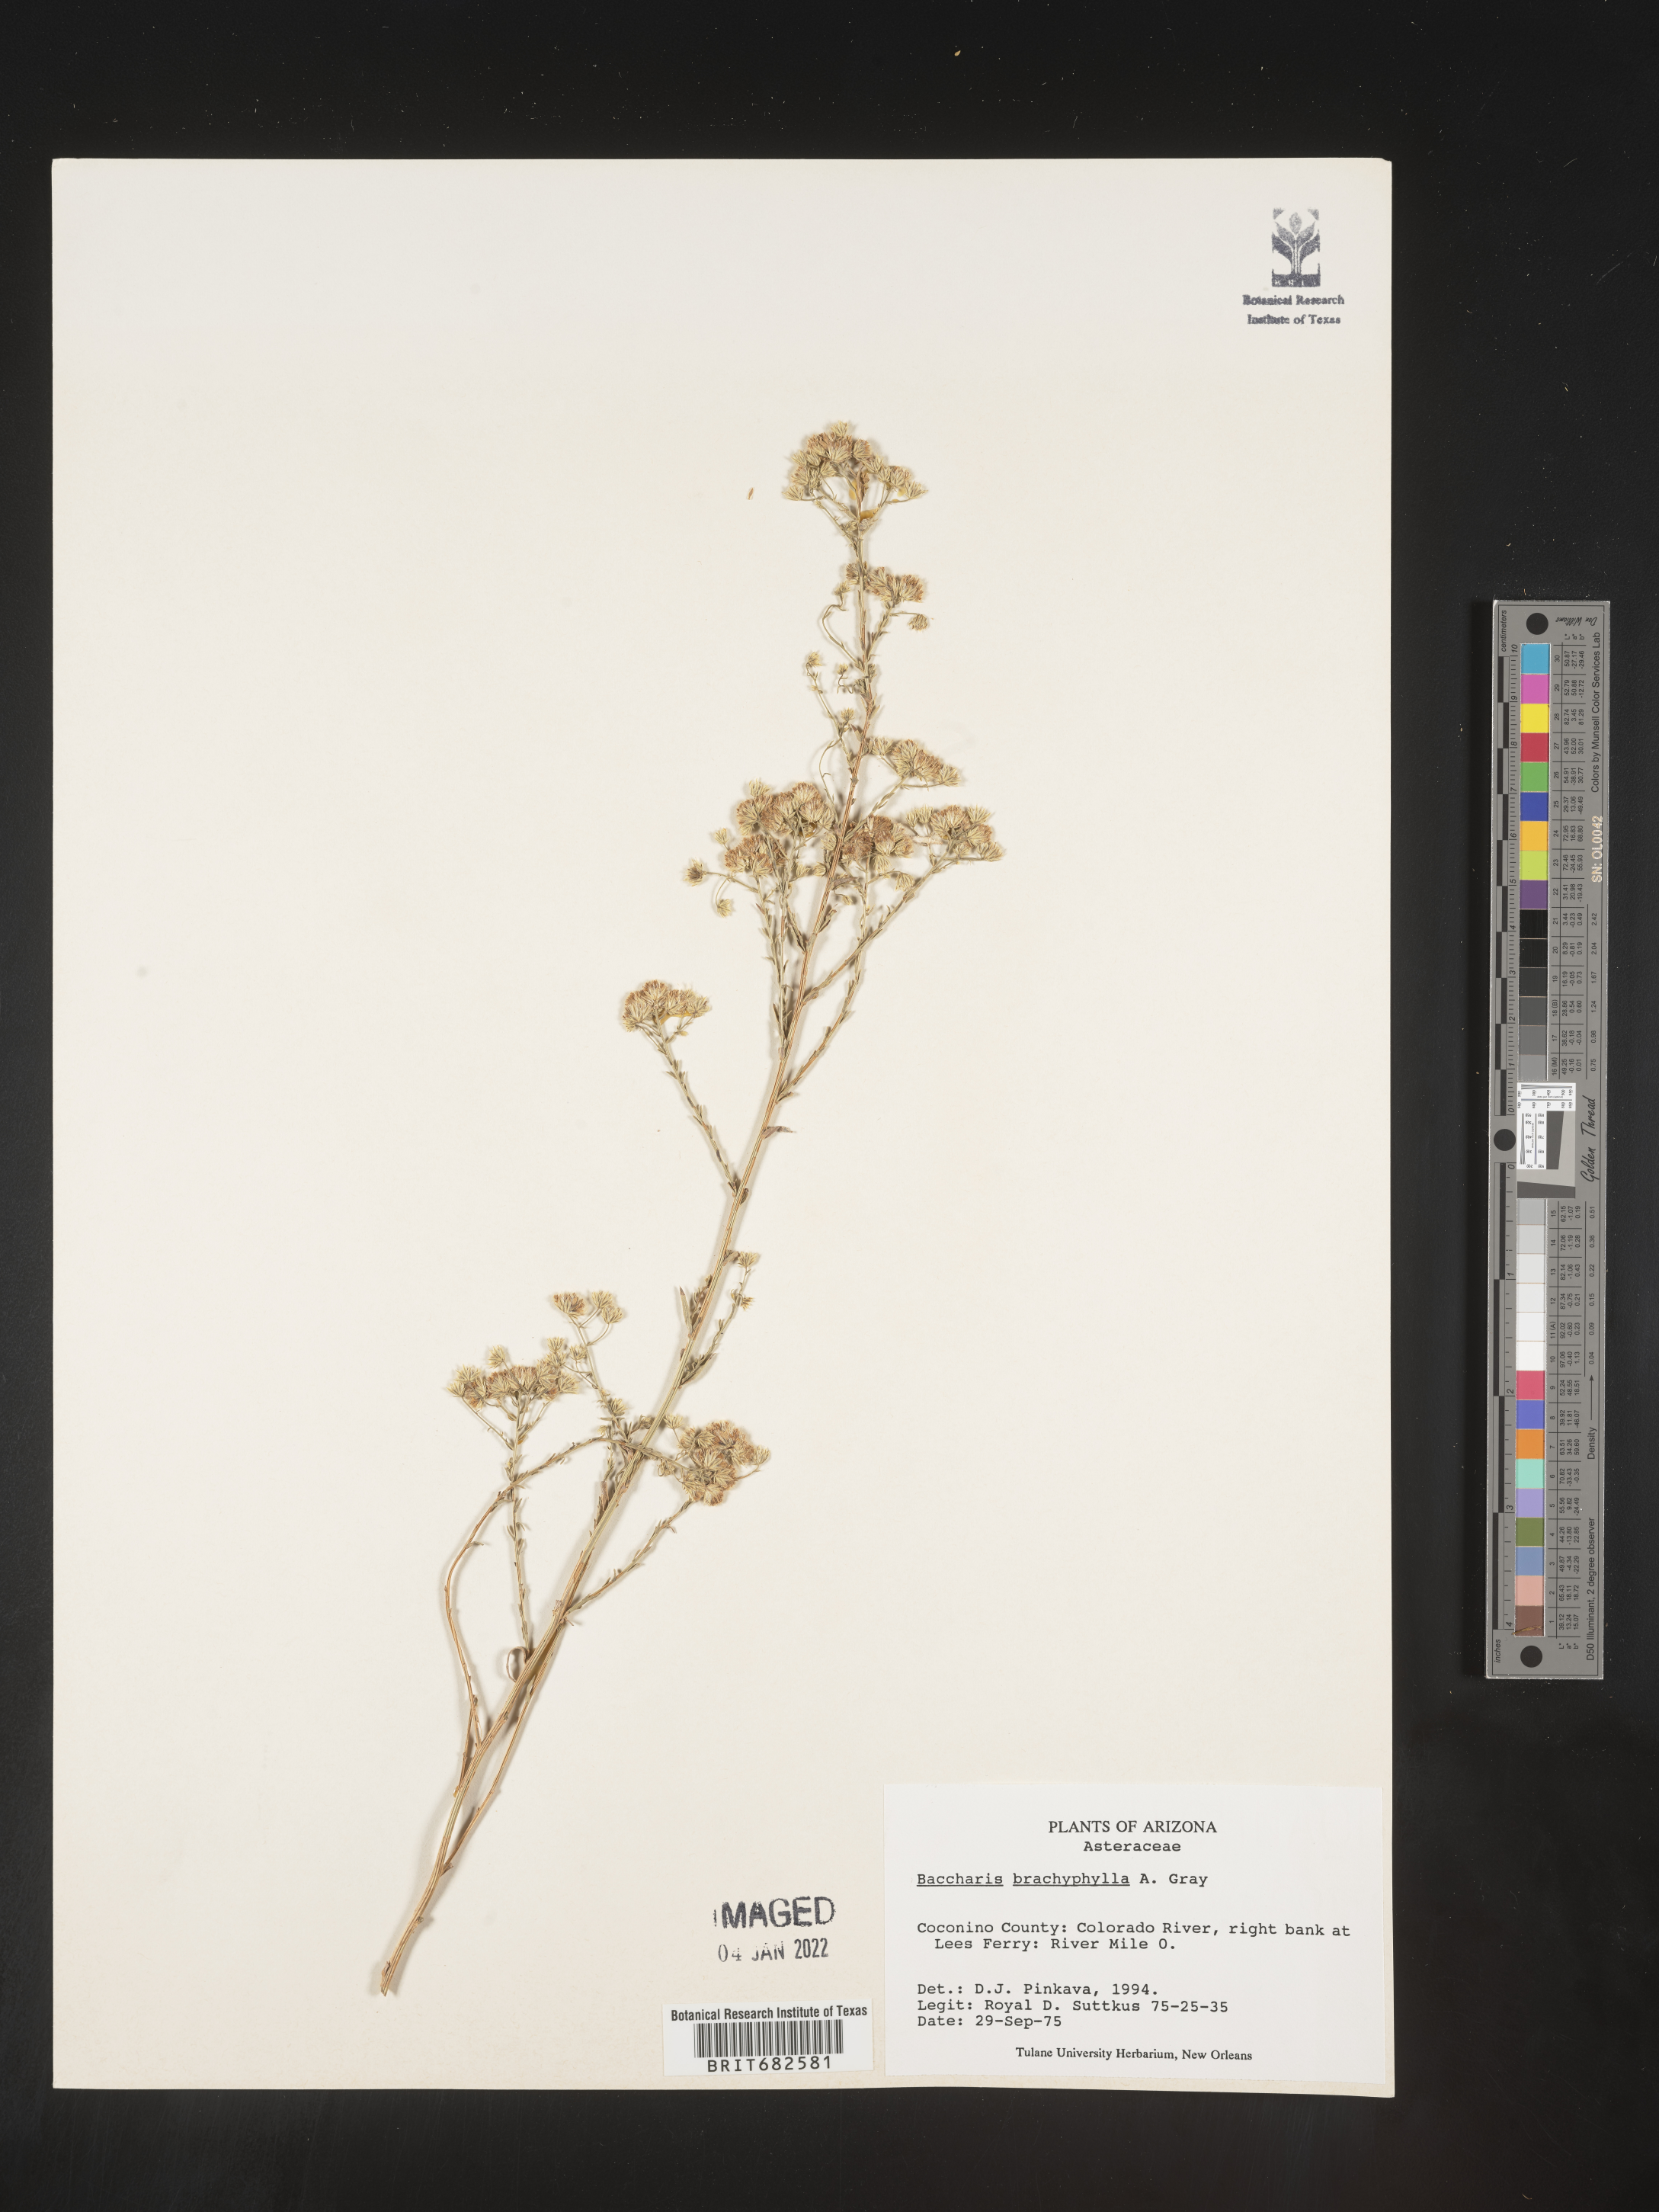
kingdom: Plantae
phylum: Tracheophyta
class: Magnoliopsida
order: Asterales
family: Asteraceae
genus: Baccharis
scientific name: Baccharis brachyphylla
